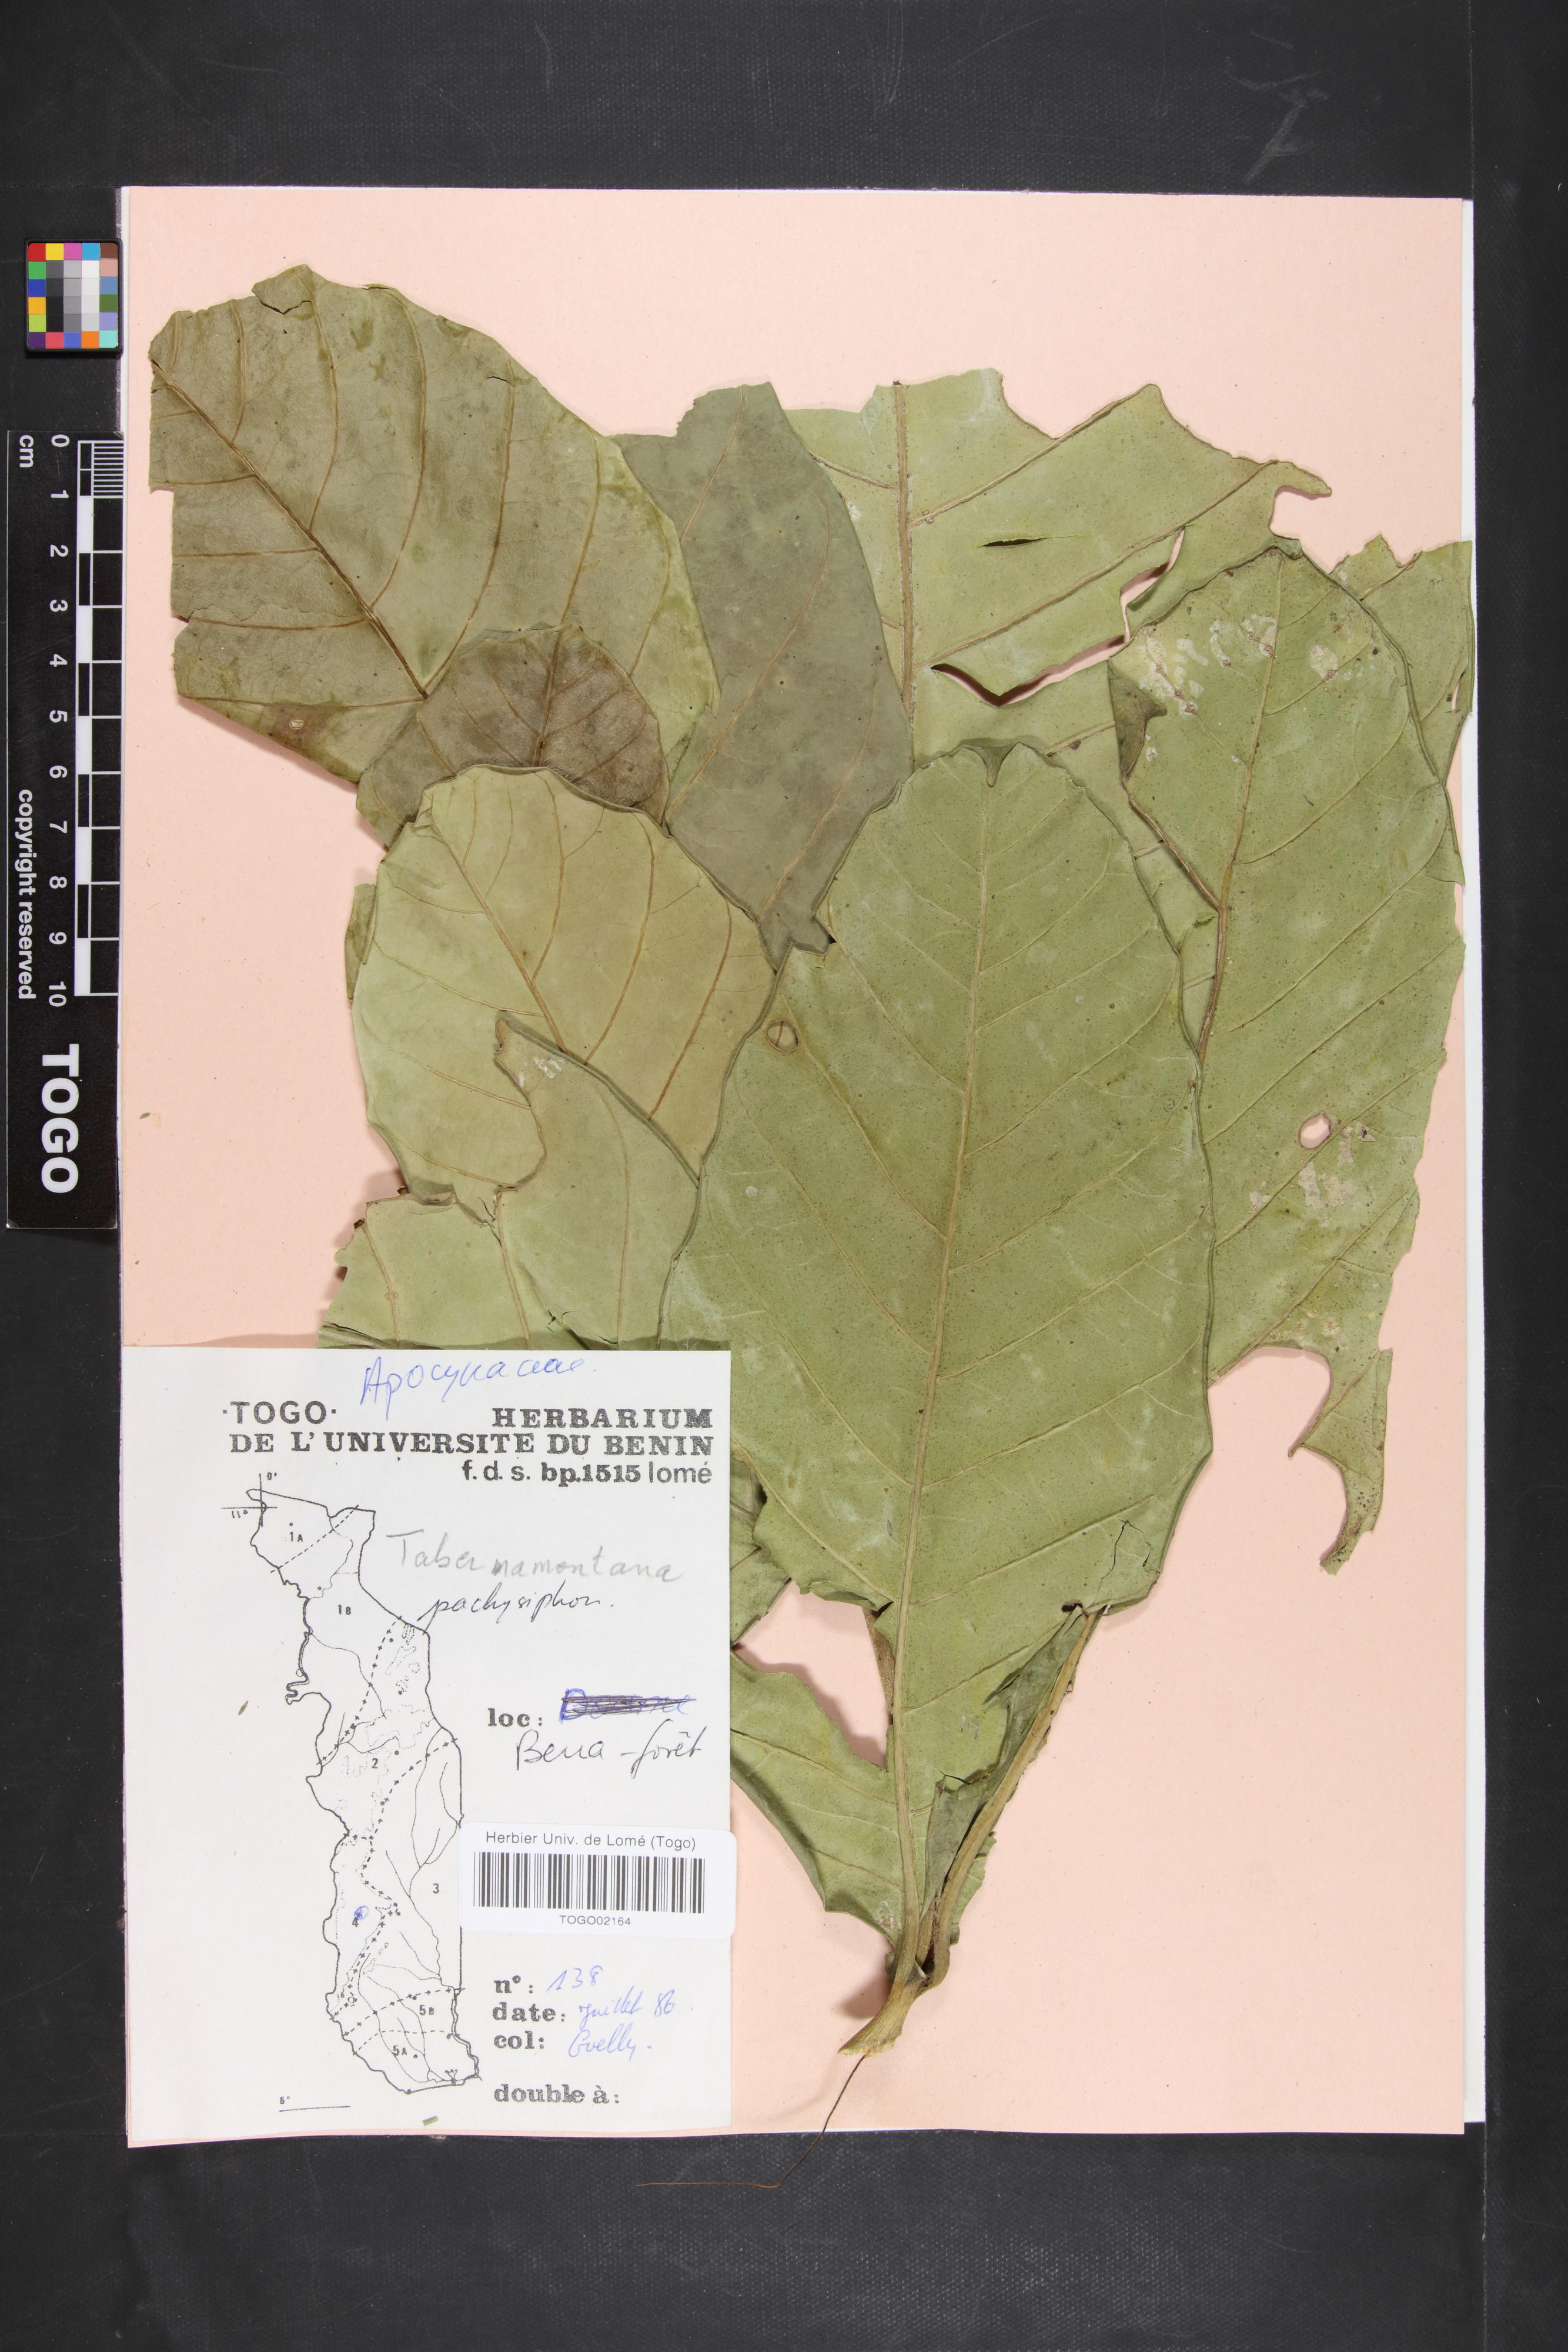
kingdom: Plantae
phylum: Tracheophyta
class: Magnoliopsida
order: Gentianales
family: Apocynaceae
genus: Tabernaemontana
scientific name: Tabernaemontana pachysiphon
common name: Giant pinwheel-flower
